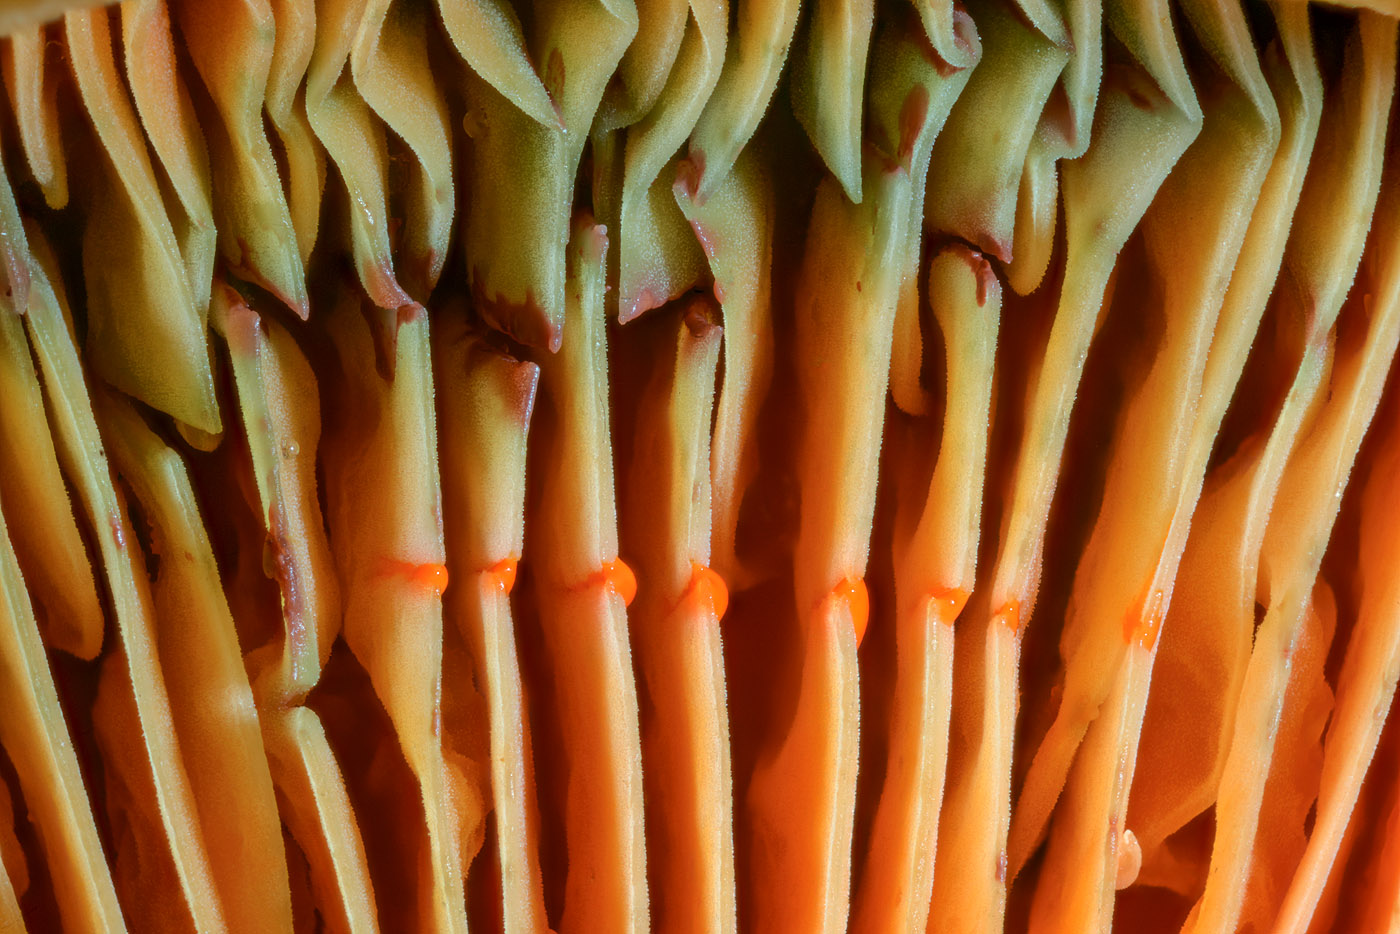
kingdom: Fungi
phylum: Basidiomycota
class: Agaricomycetes
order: Russulales
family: Russulaceae
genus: Lactarius
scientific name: Lactarius fennoscandicus
